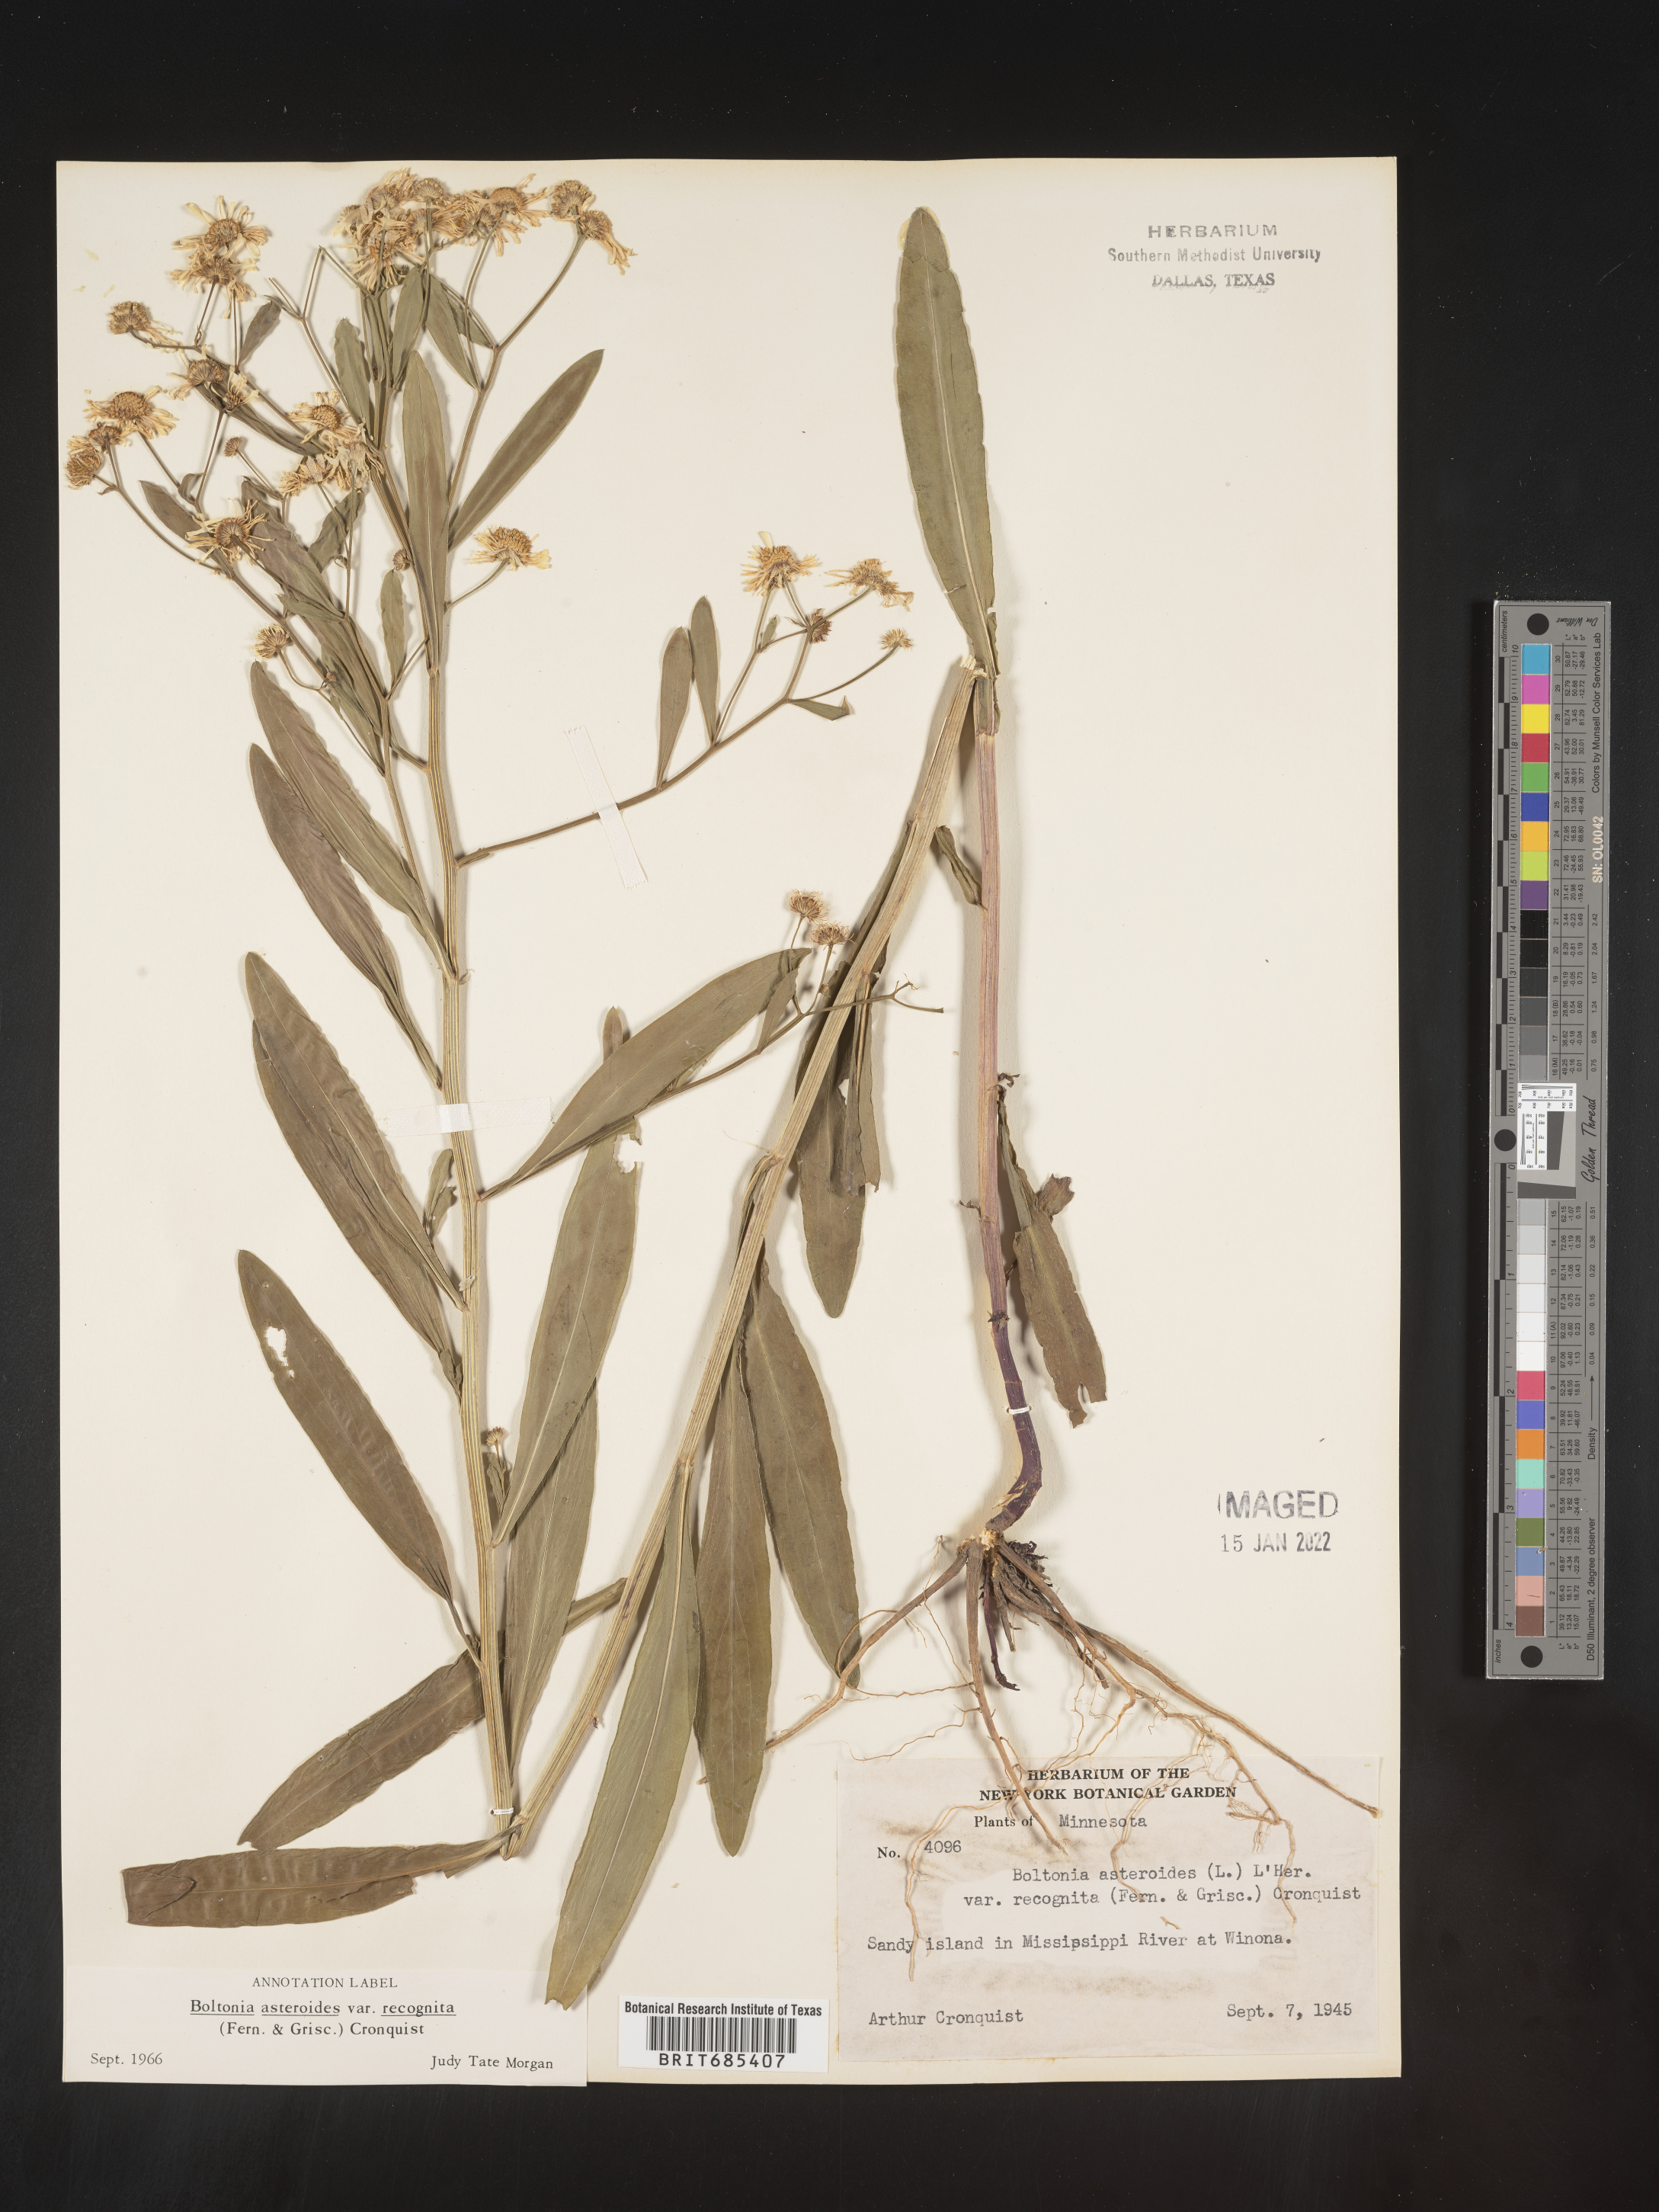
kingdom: Plantae
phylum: Tracheophyta
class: Magnoliopsida
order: Asterales
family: Asteraceae
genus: Boltonia
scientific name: Boltonia asteroides
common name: False chamomile
